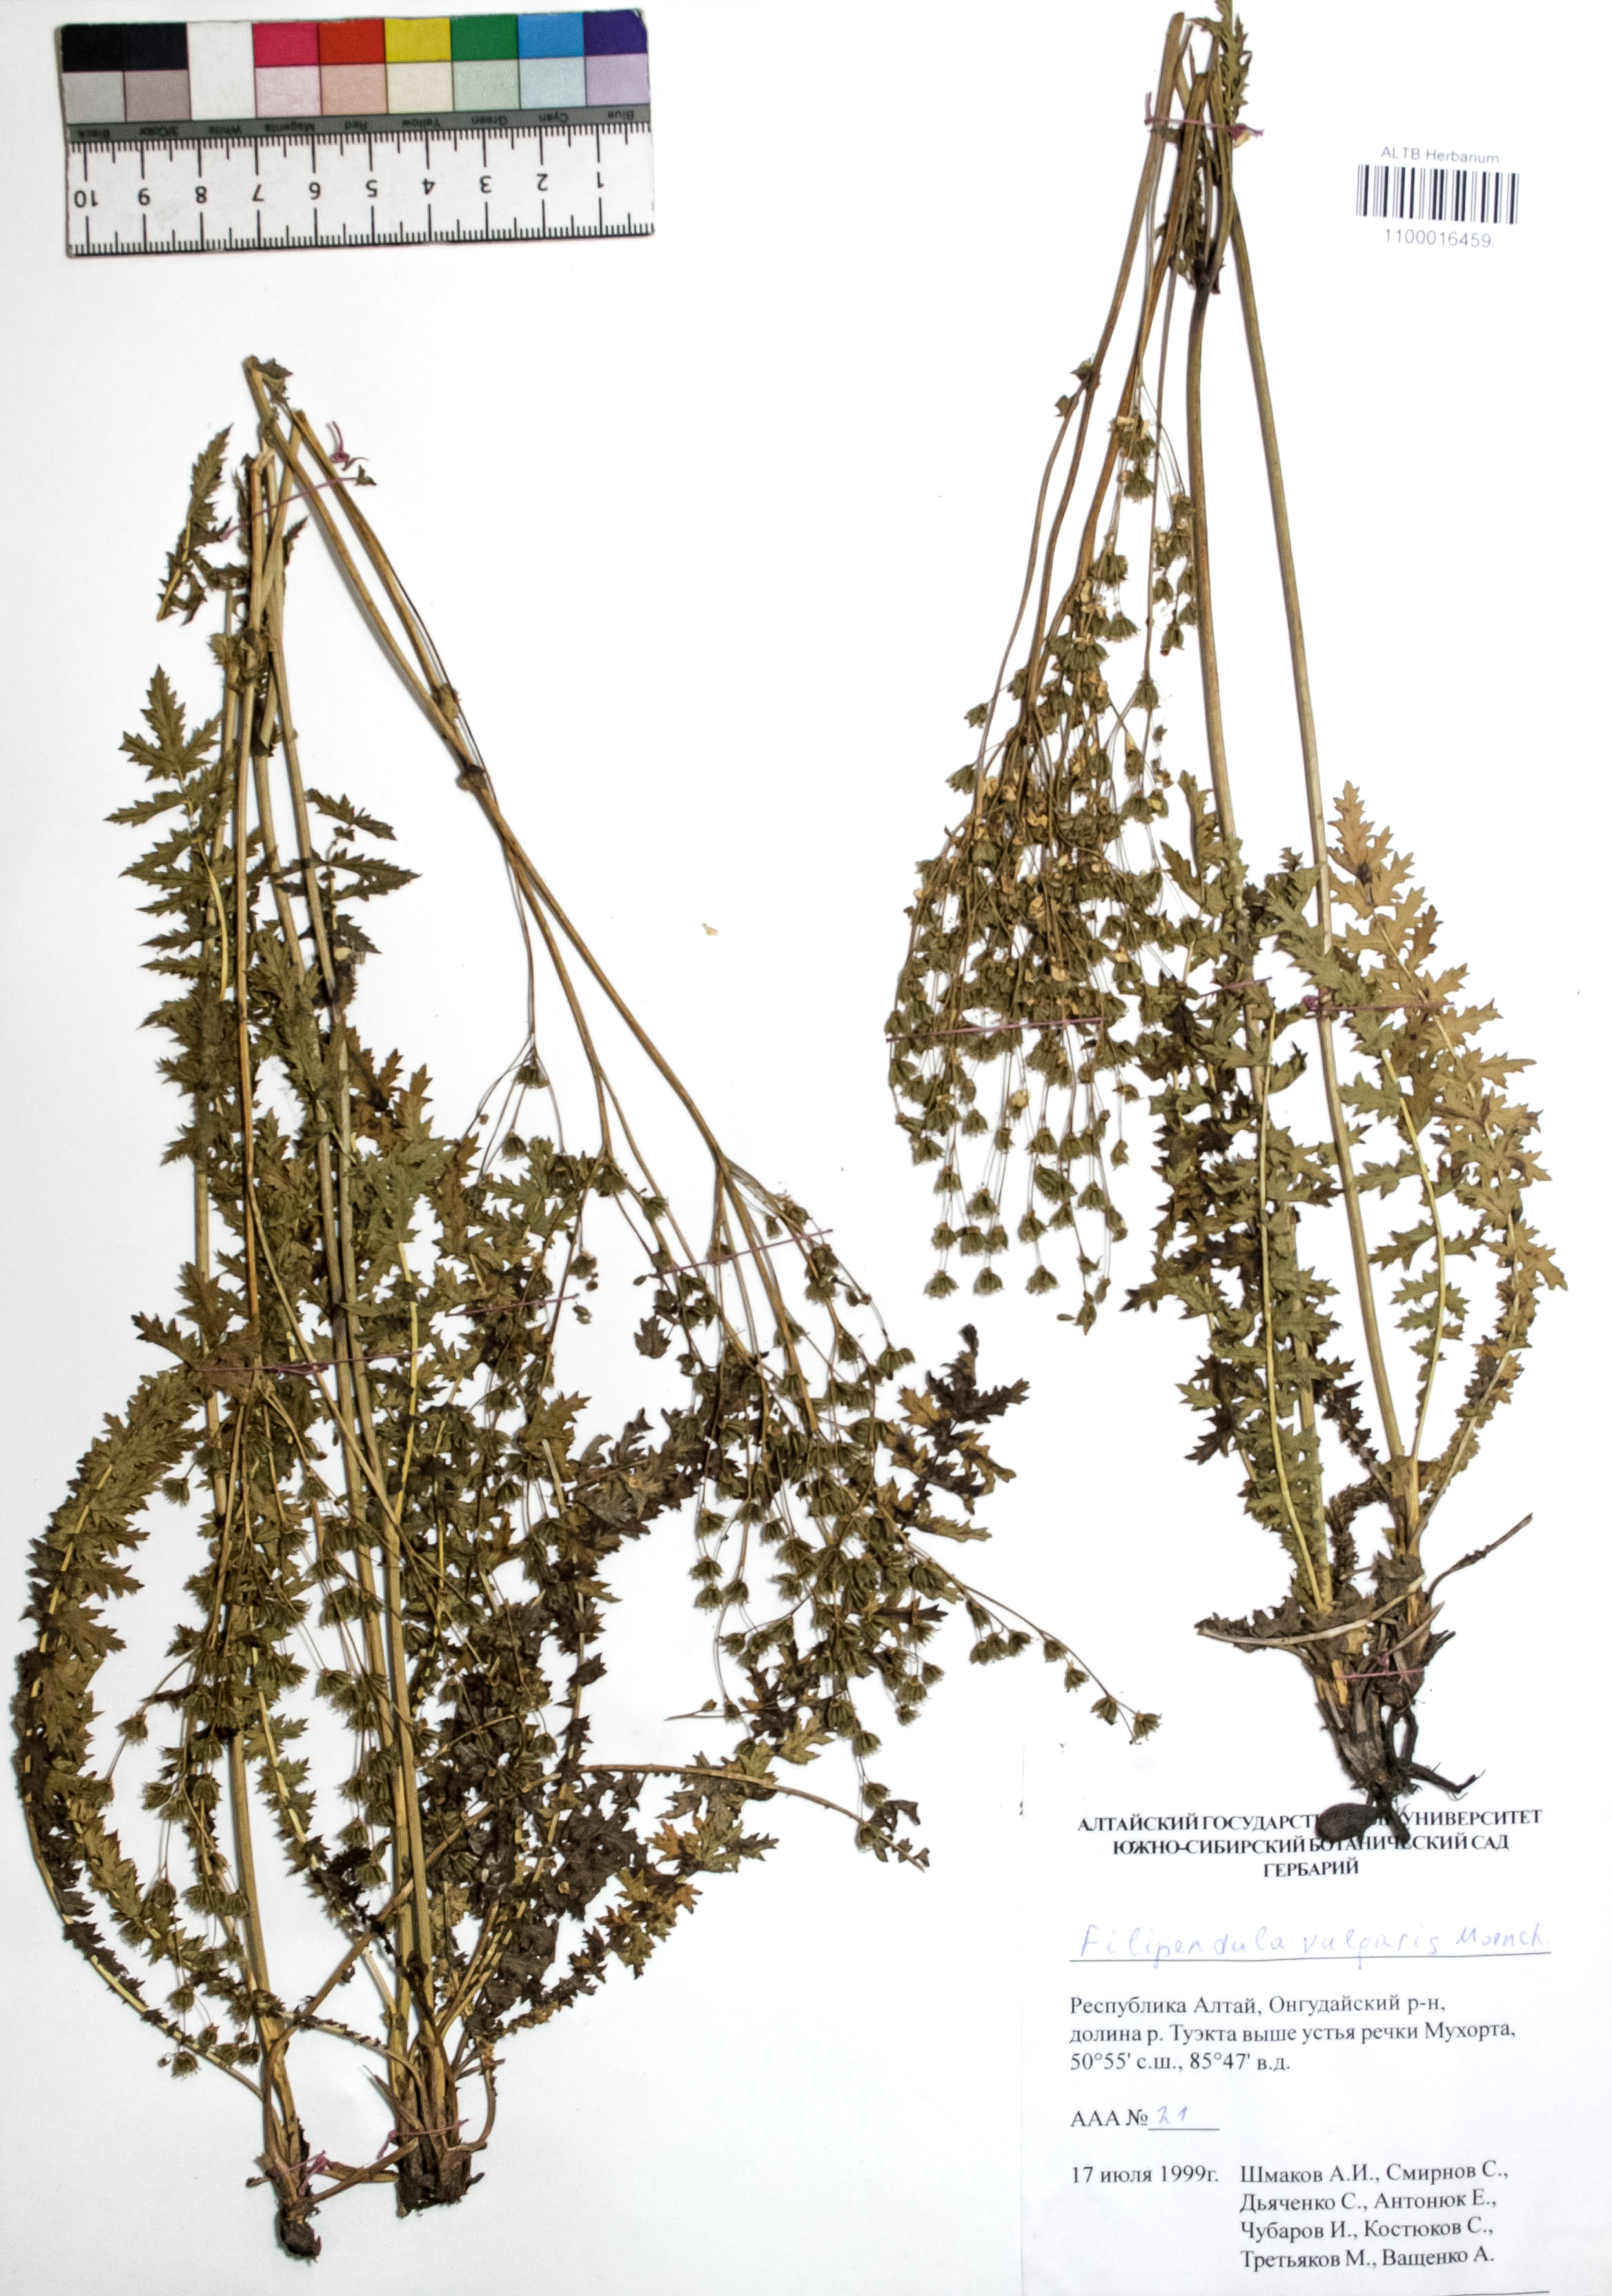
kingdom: Plantae
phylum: Tracheophyta
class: Magnoliopsida
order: Rosales
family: Rosaceae
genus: Filipendula
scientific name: Filipendula vulgaris
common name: Dropwort
